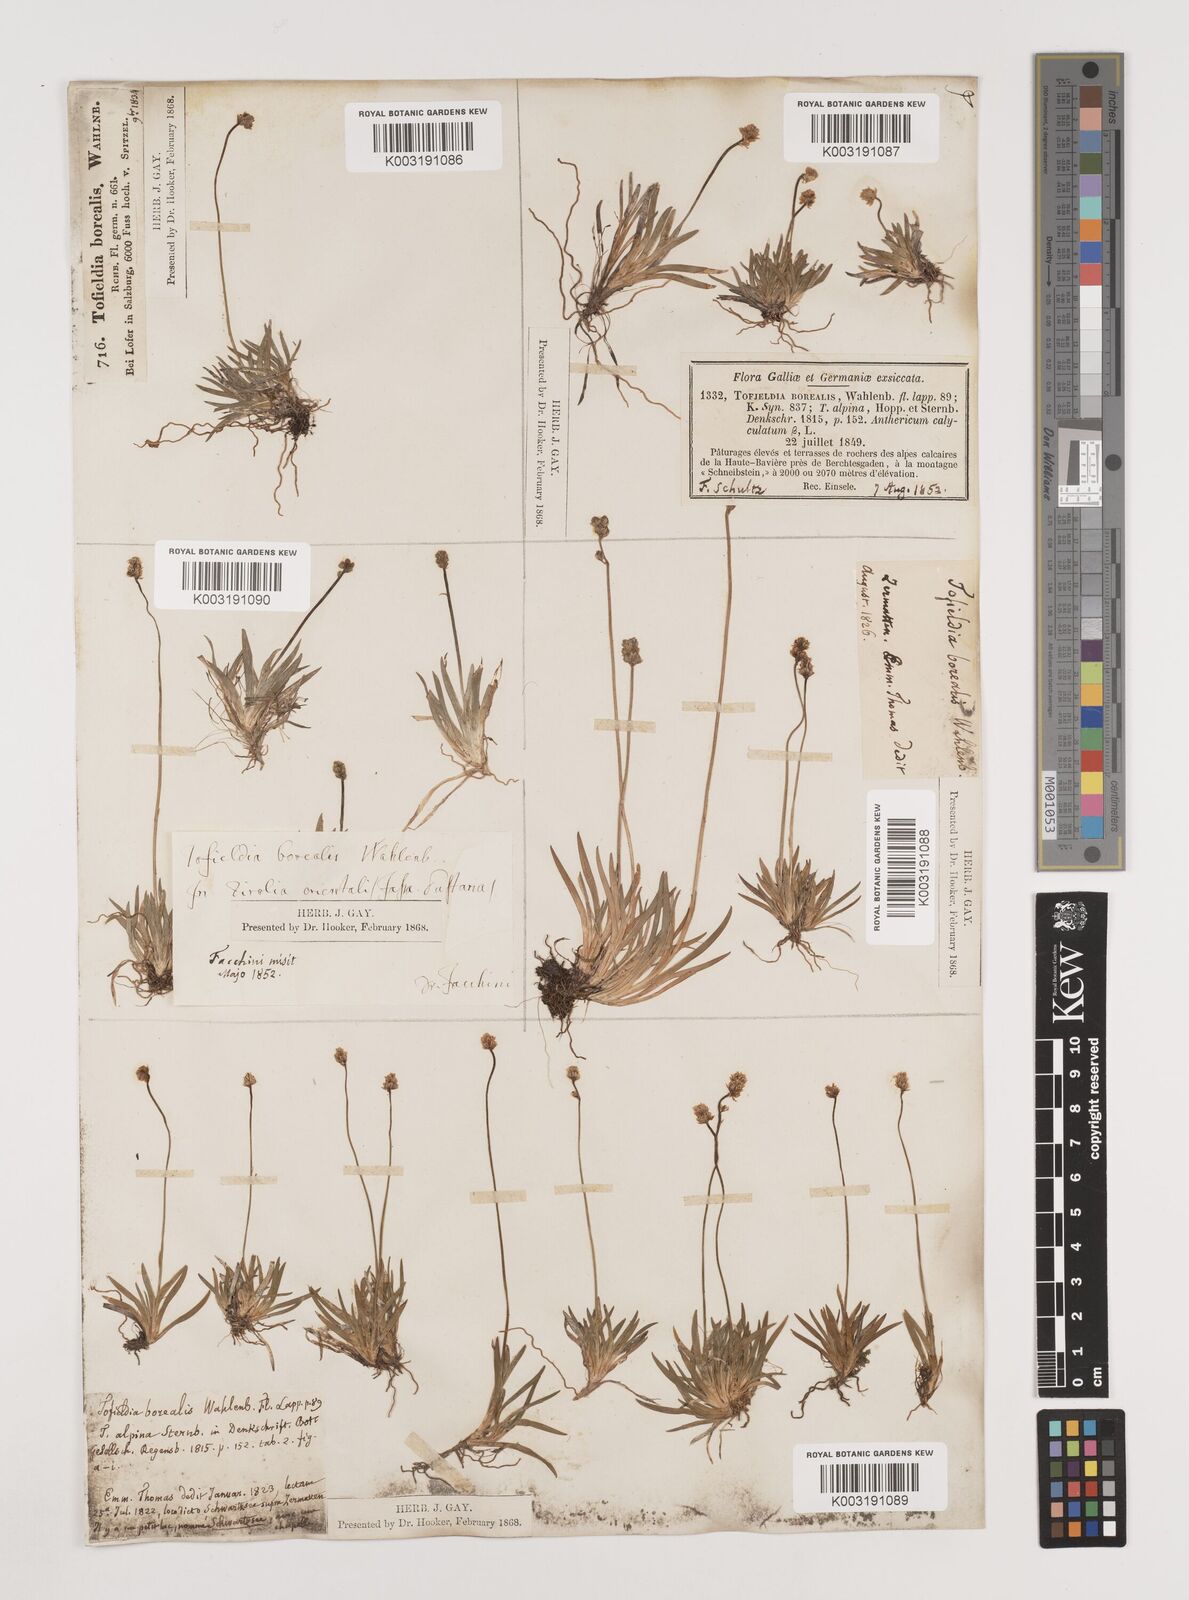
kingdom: Plantae
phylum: Tracheophyta
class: Liliopsida
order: Alismatales
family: Tofieldiaceae
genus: Tofieldia
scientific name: Tofieldia pusilla
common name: Scottish false asphodel
